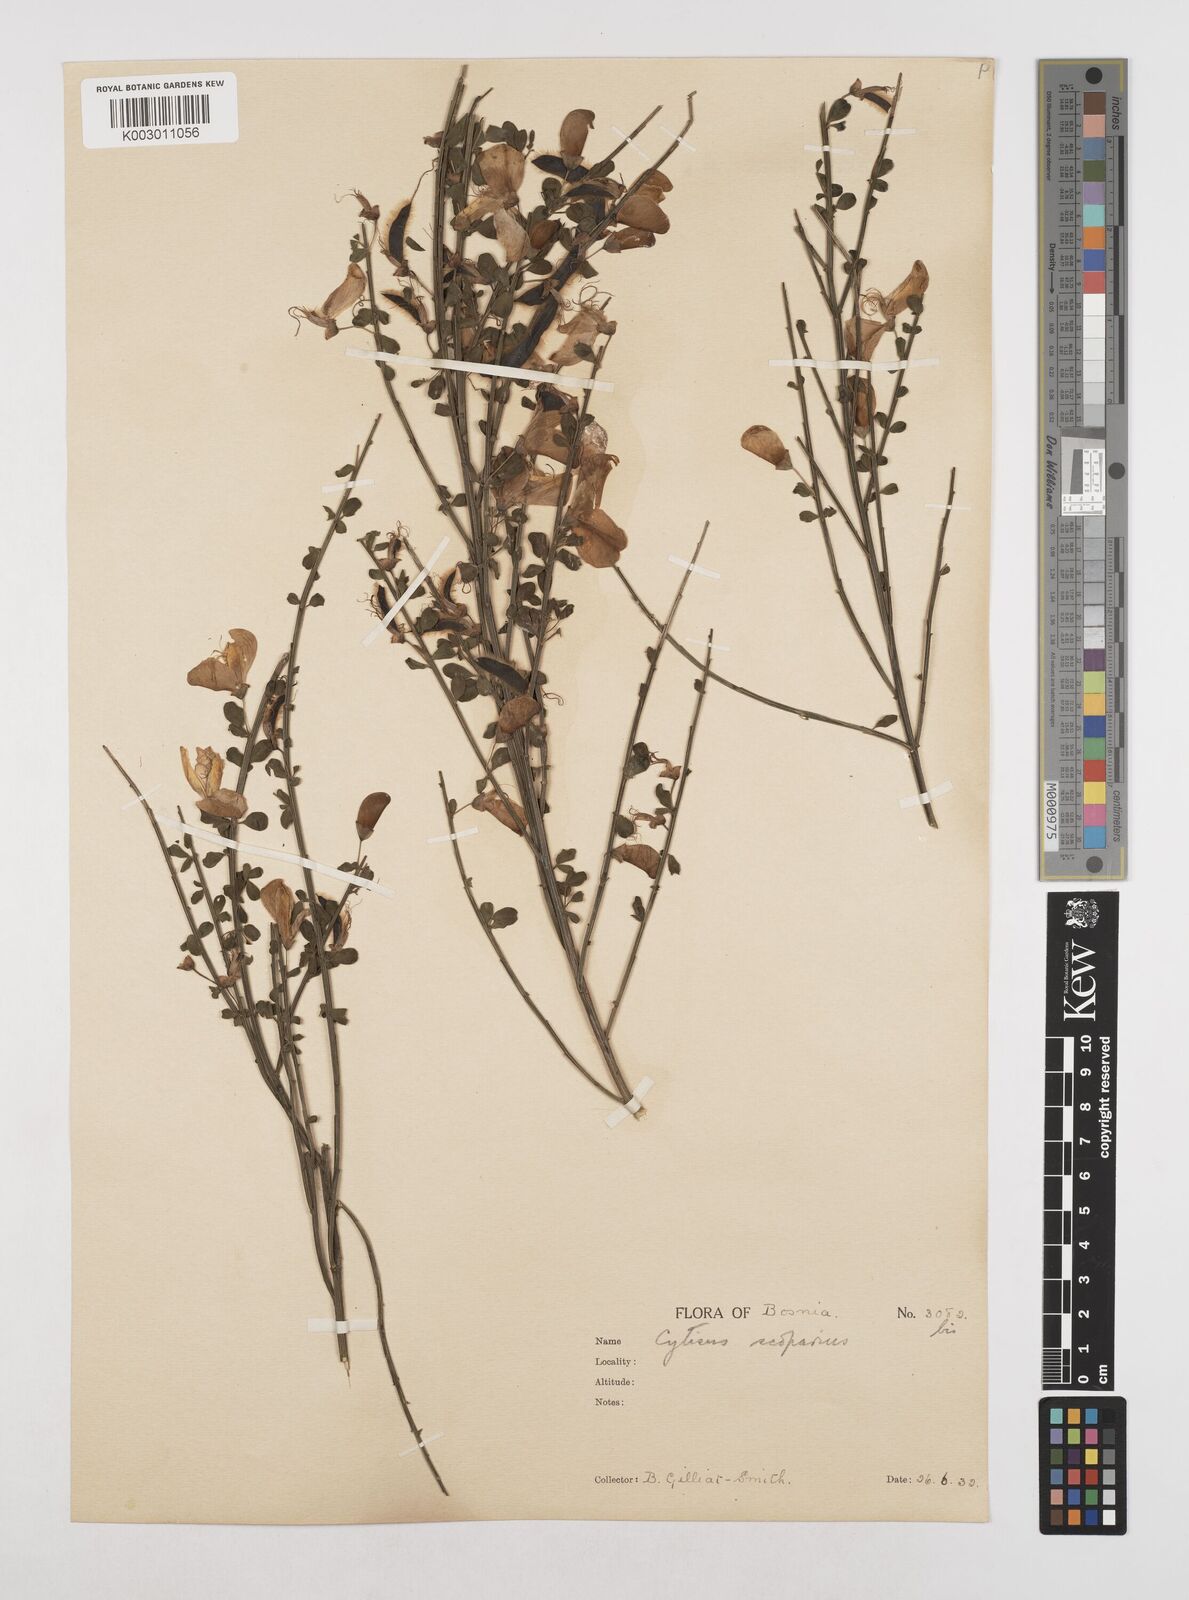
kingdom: Plantae
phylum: Tracheophyta
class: Magnoliopsida
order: Fabales
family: Fabaceae
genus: Cytisus
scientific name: Cytisus scoparius
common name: Scotch broom
